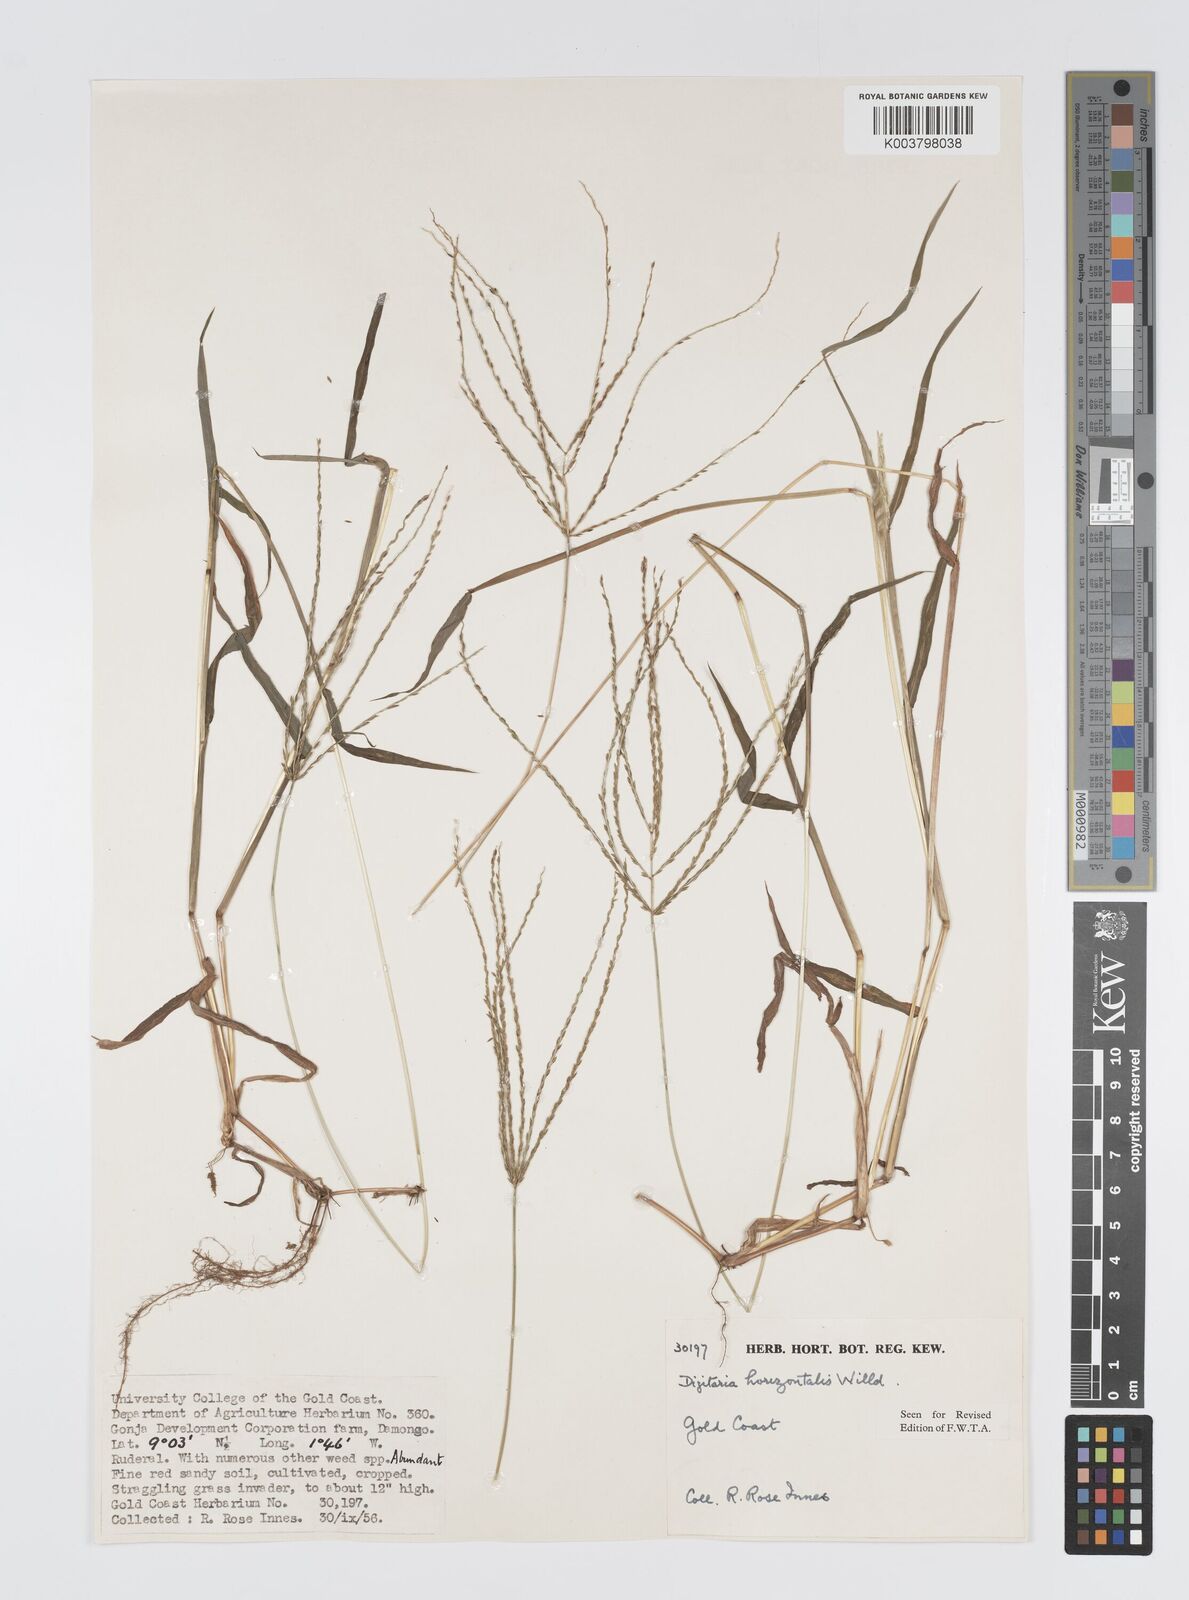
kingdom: Plantae
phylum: Tracheophyta
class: Liliopsida
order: Poales
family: Poaceae
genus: Digitaria
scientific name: Digitaria horizontalis
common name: Jamaican crabgrass
